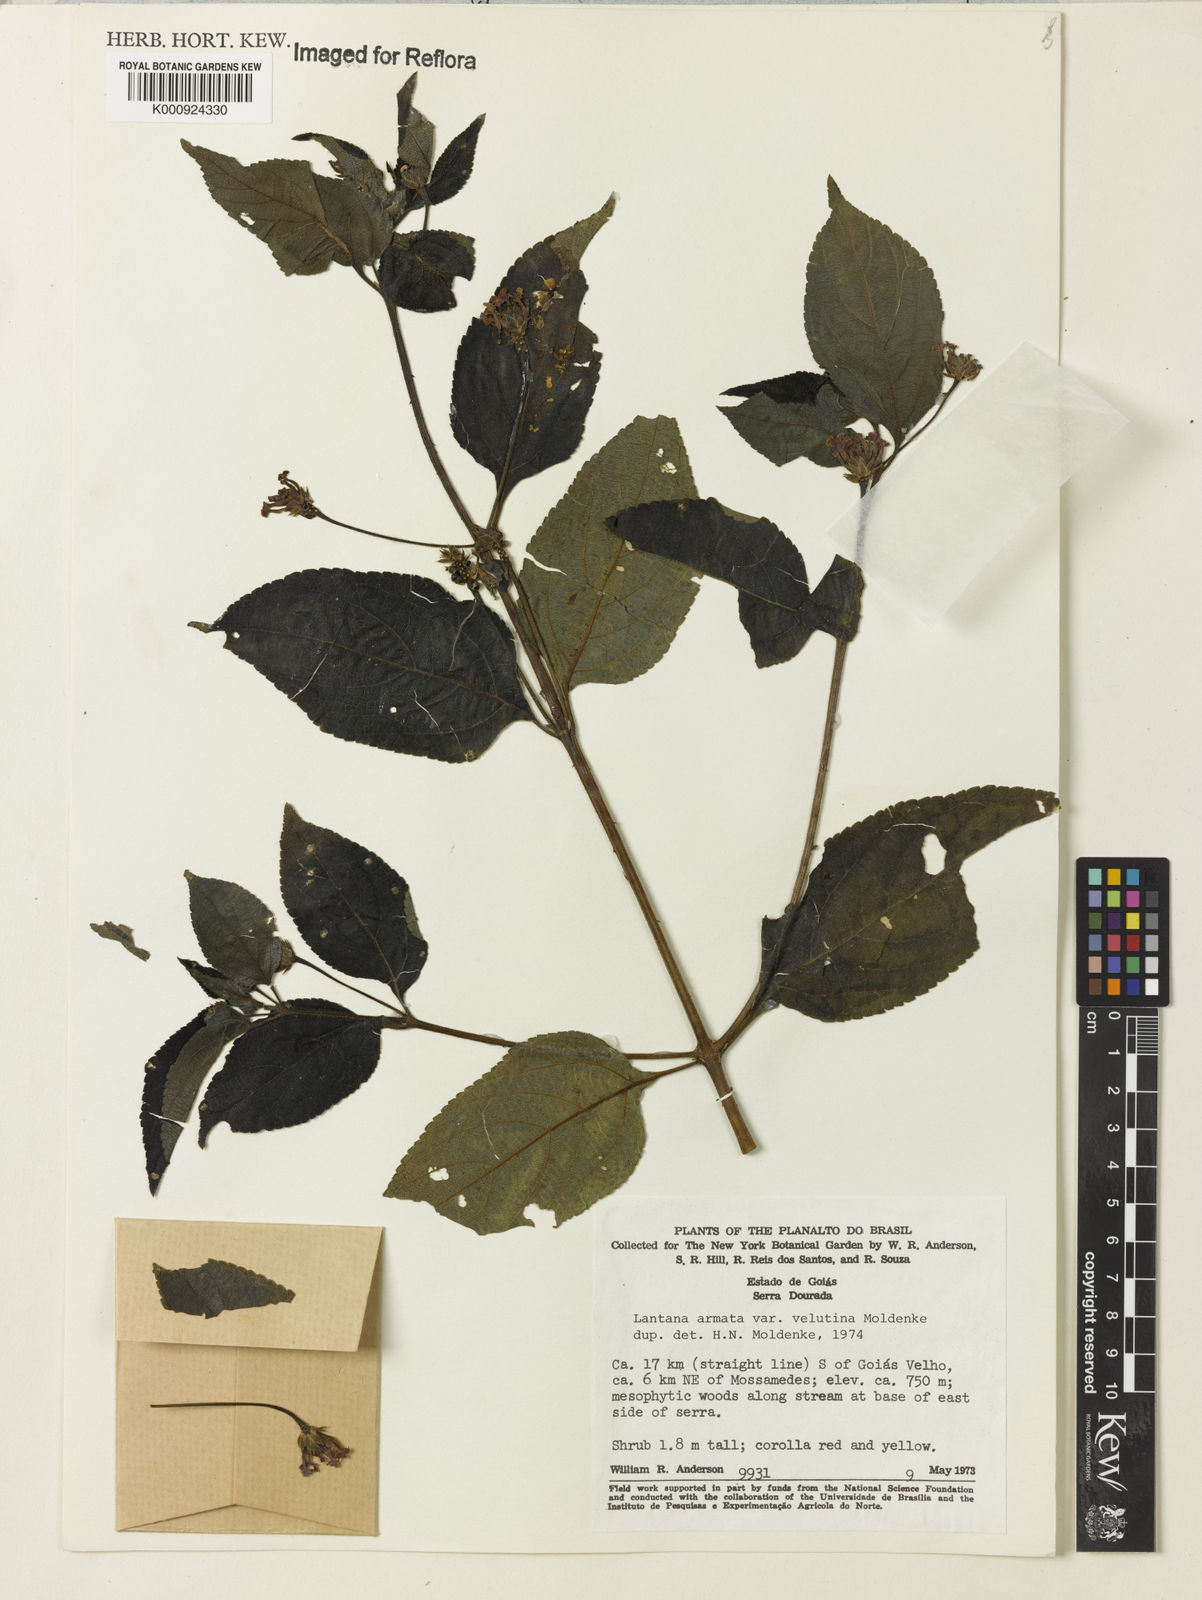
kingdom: Plantae
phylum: Tracheophyta
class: Magnoliopsida
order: Lamiales
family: Verbenaceae
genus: Lippia
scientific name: Lippia aristata
